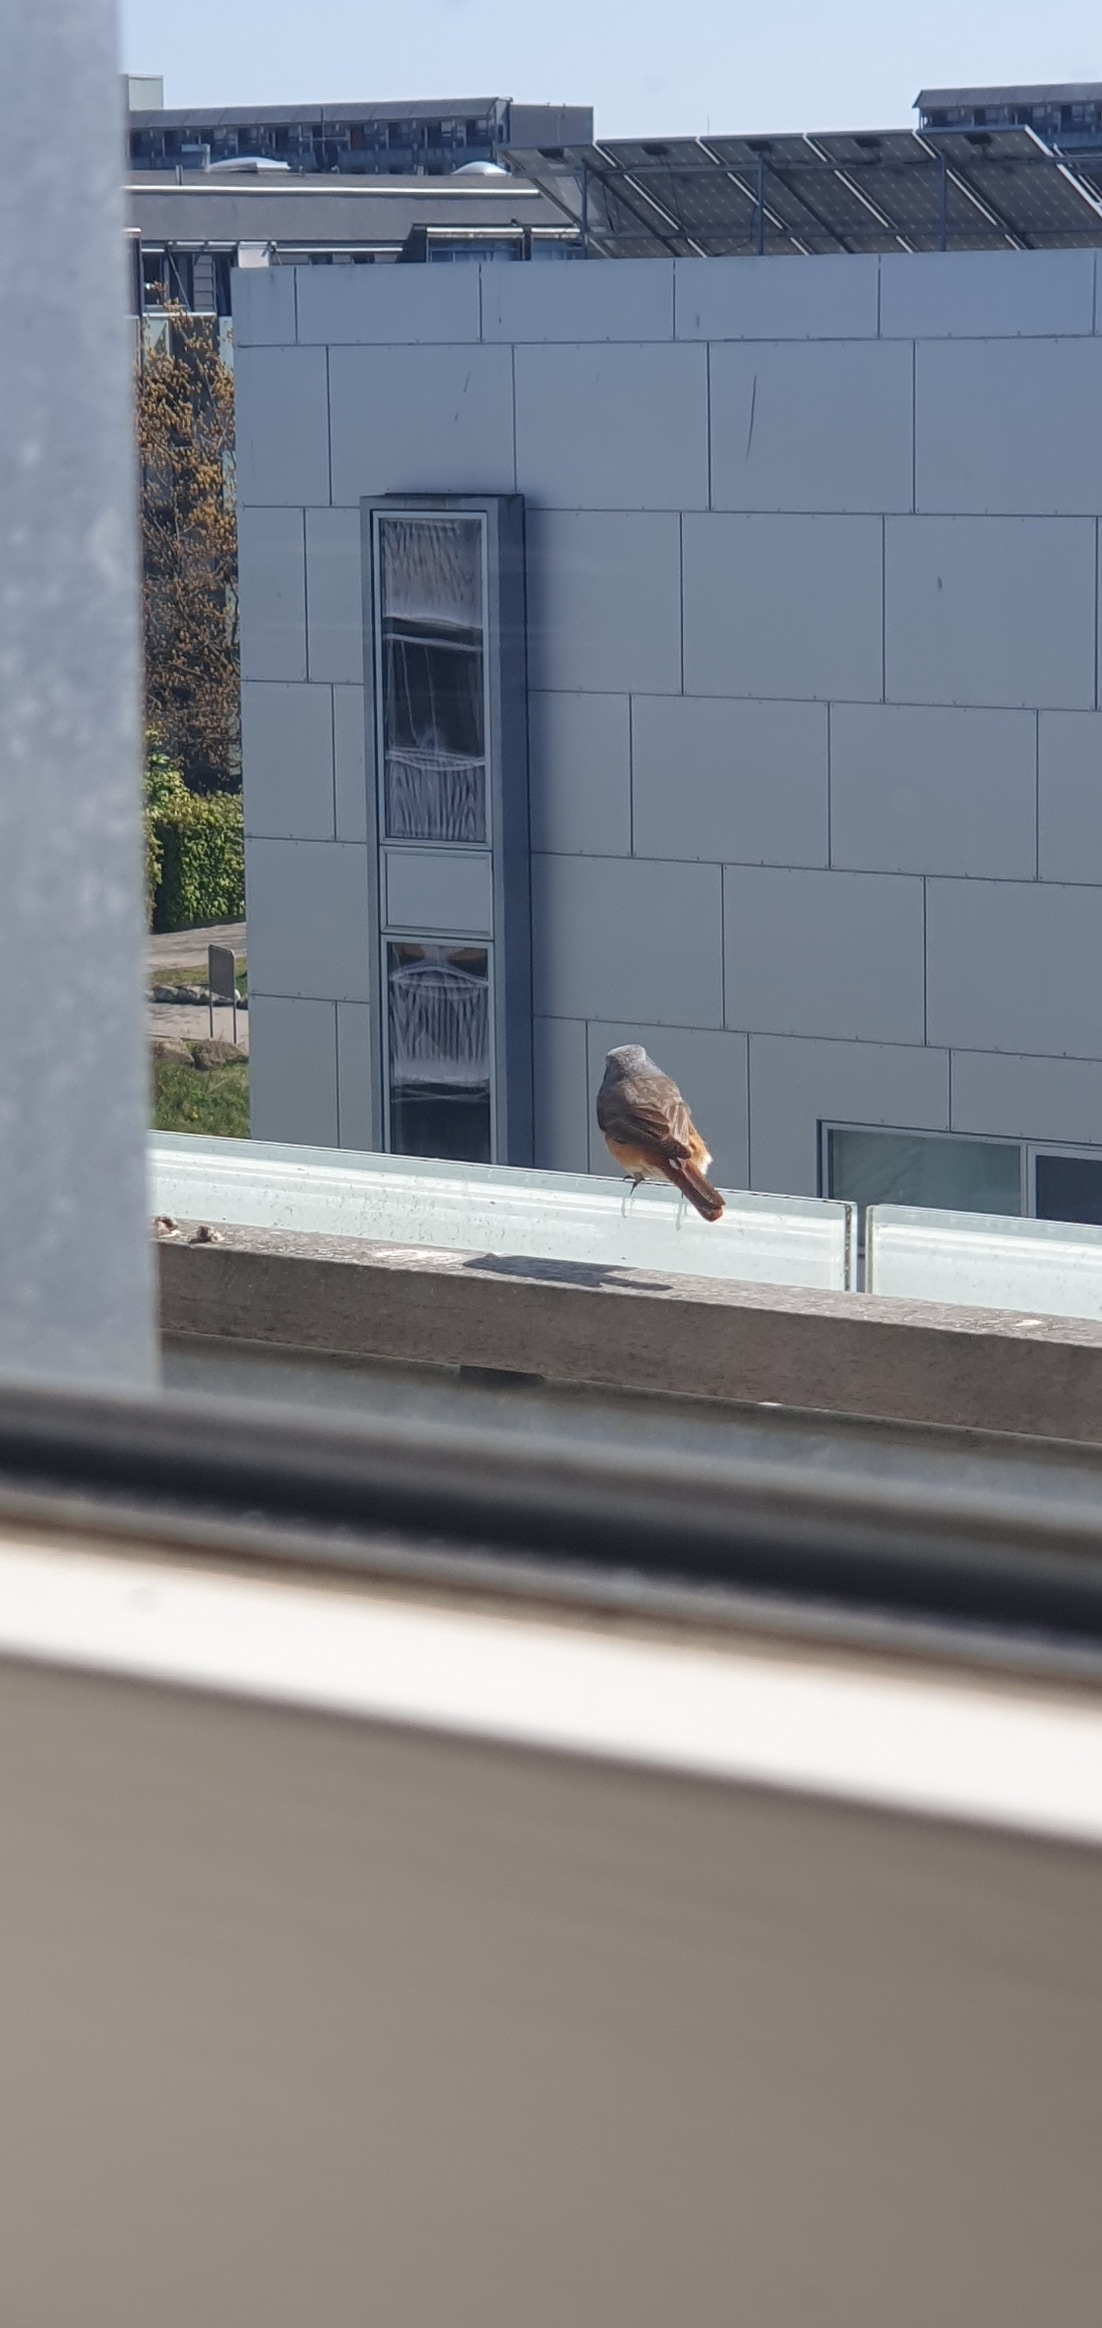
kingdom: Animalia
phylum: Chordata
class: Aves
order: Passeriformes
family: Muscicapidae
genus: Phoenicurus
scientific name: Phoenicurus phoenicurus
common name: Rødstjert
